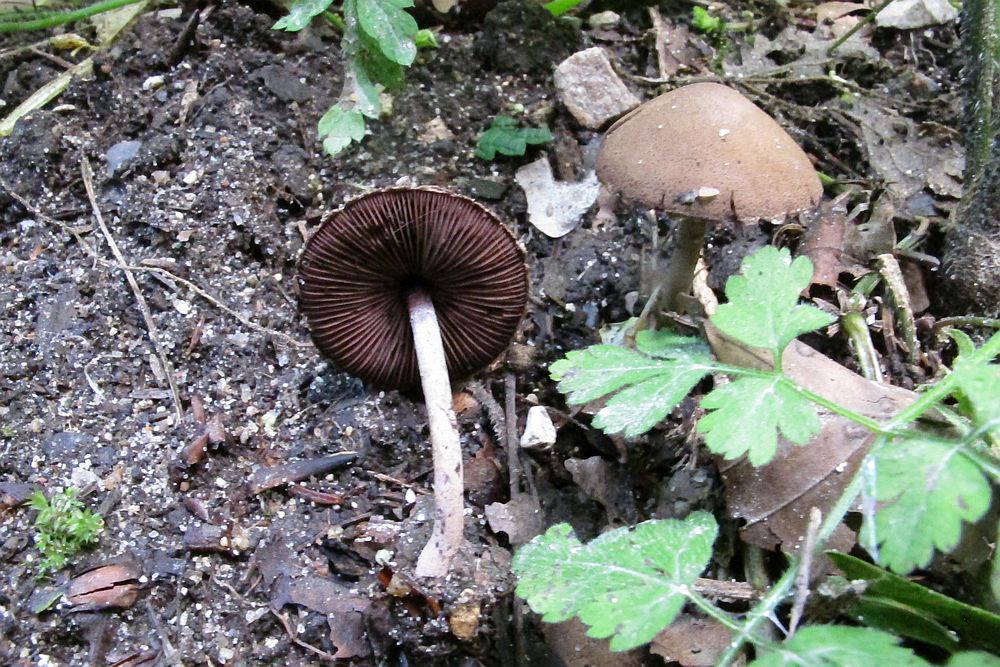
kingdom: Fungi
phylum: Basidiomycota
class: Agaricomycetes
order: Agaricales
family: Agaricaceae
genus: Melanophyllum
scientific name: Melanophyllum haematospermum
